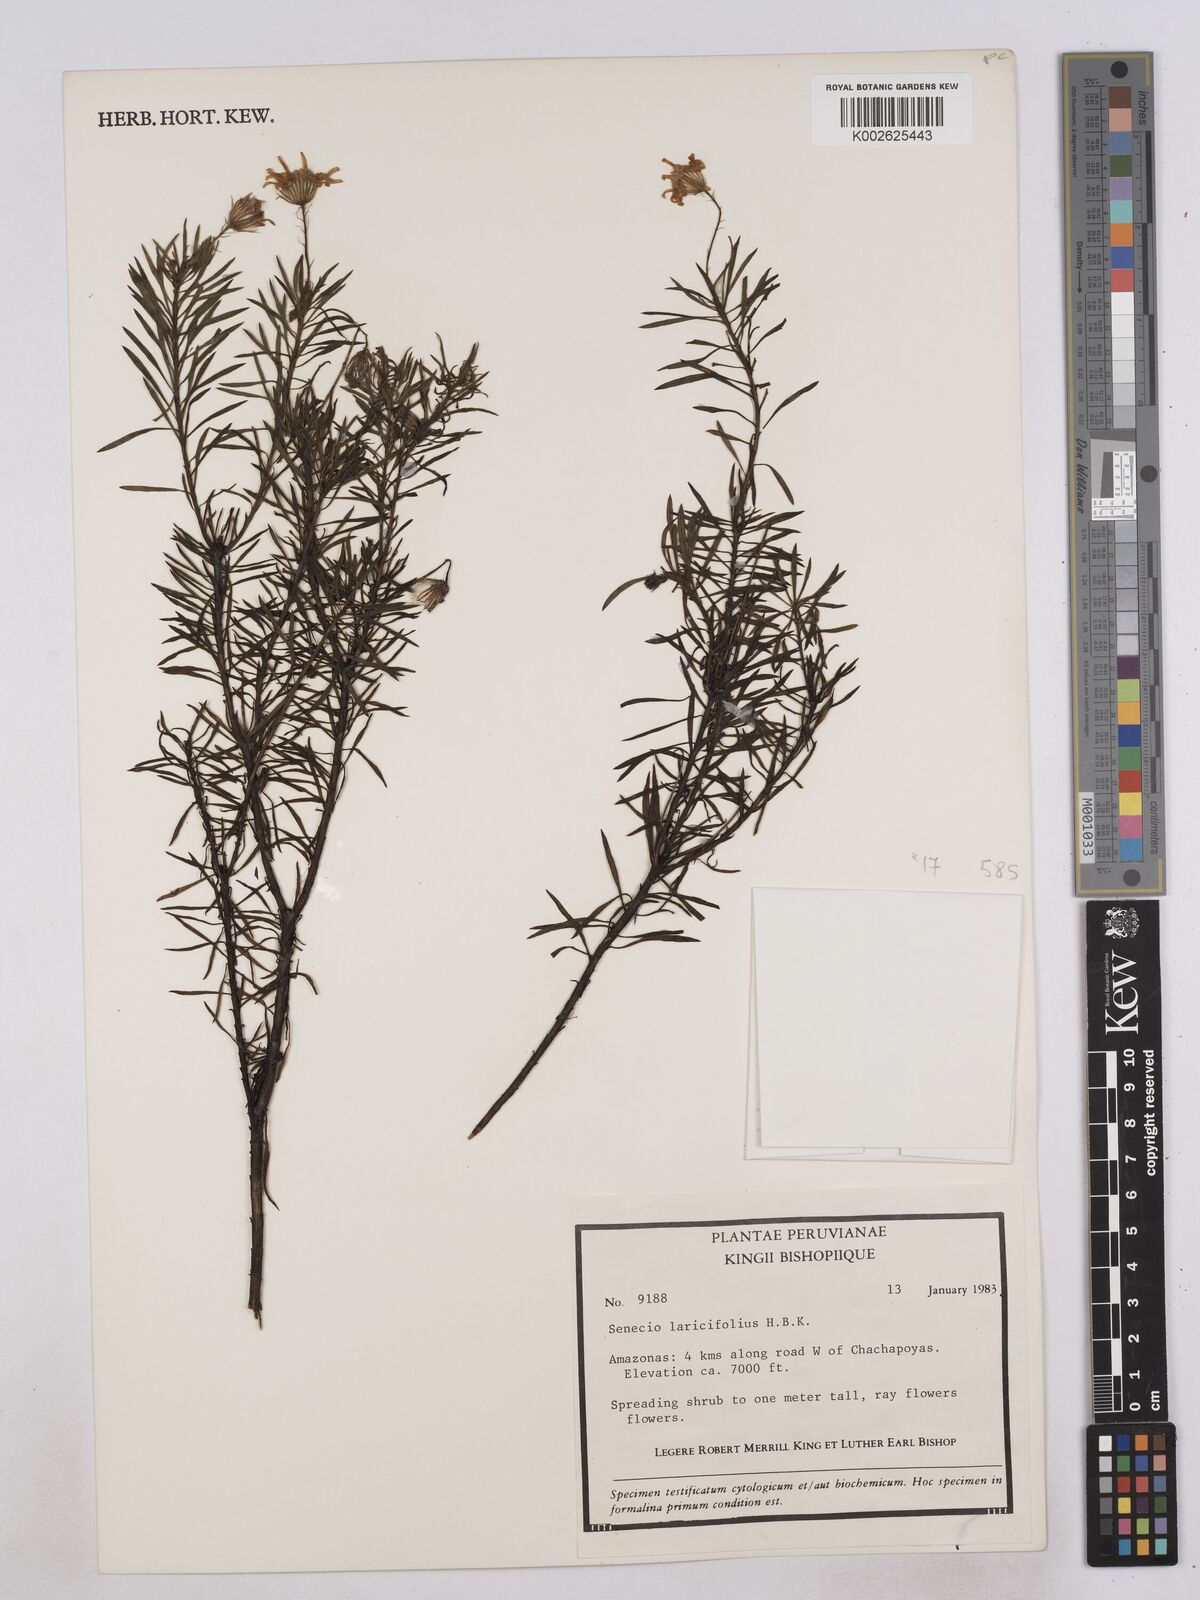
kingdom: Plantae
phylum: Tracheophyta
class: Magnoliopsida
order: Asterales
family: Asteraceae
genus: Senecio
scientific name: Senecio laricifolius
